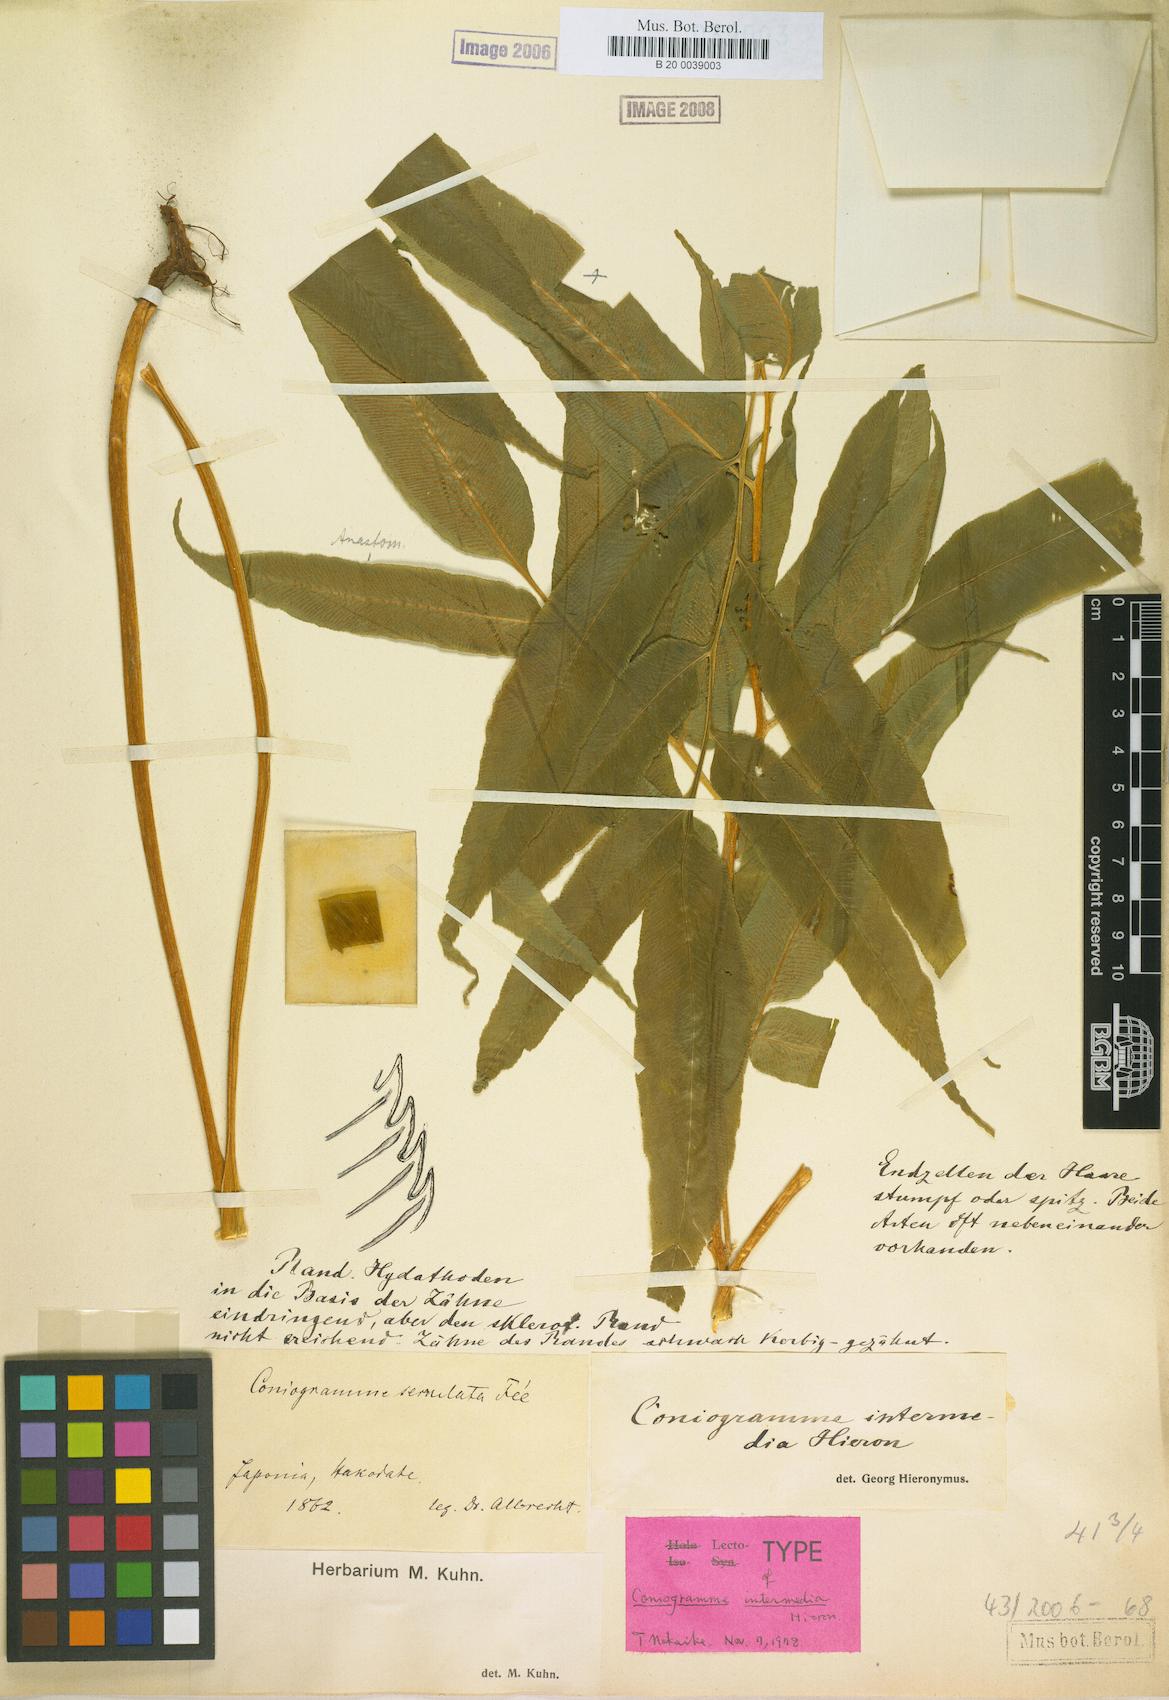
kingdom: Plantae
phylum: Tracheophyta
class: Polypodiopsida
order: Polypodiales
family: Pteridaceae
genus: Coniogramme
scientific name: Coniogramme intermedia
